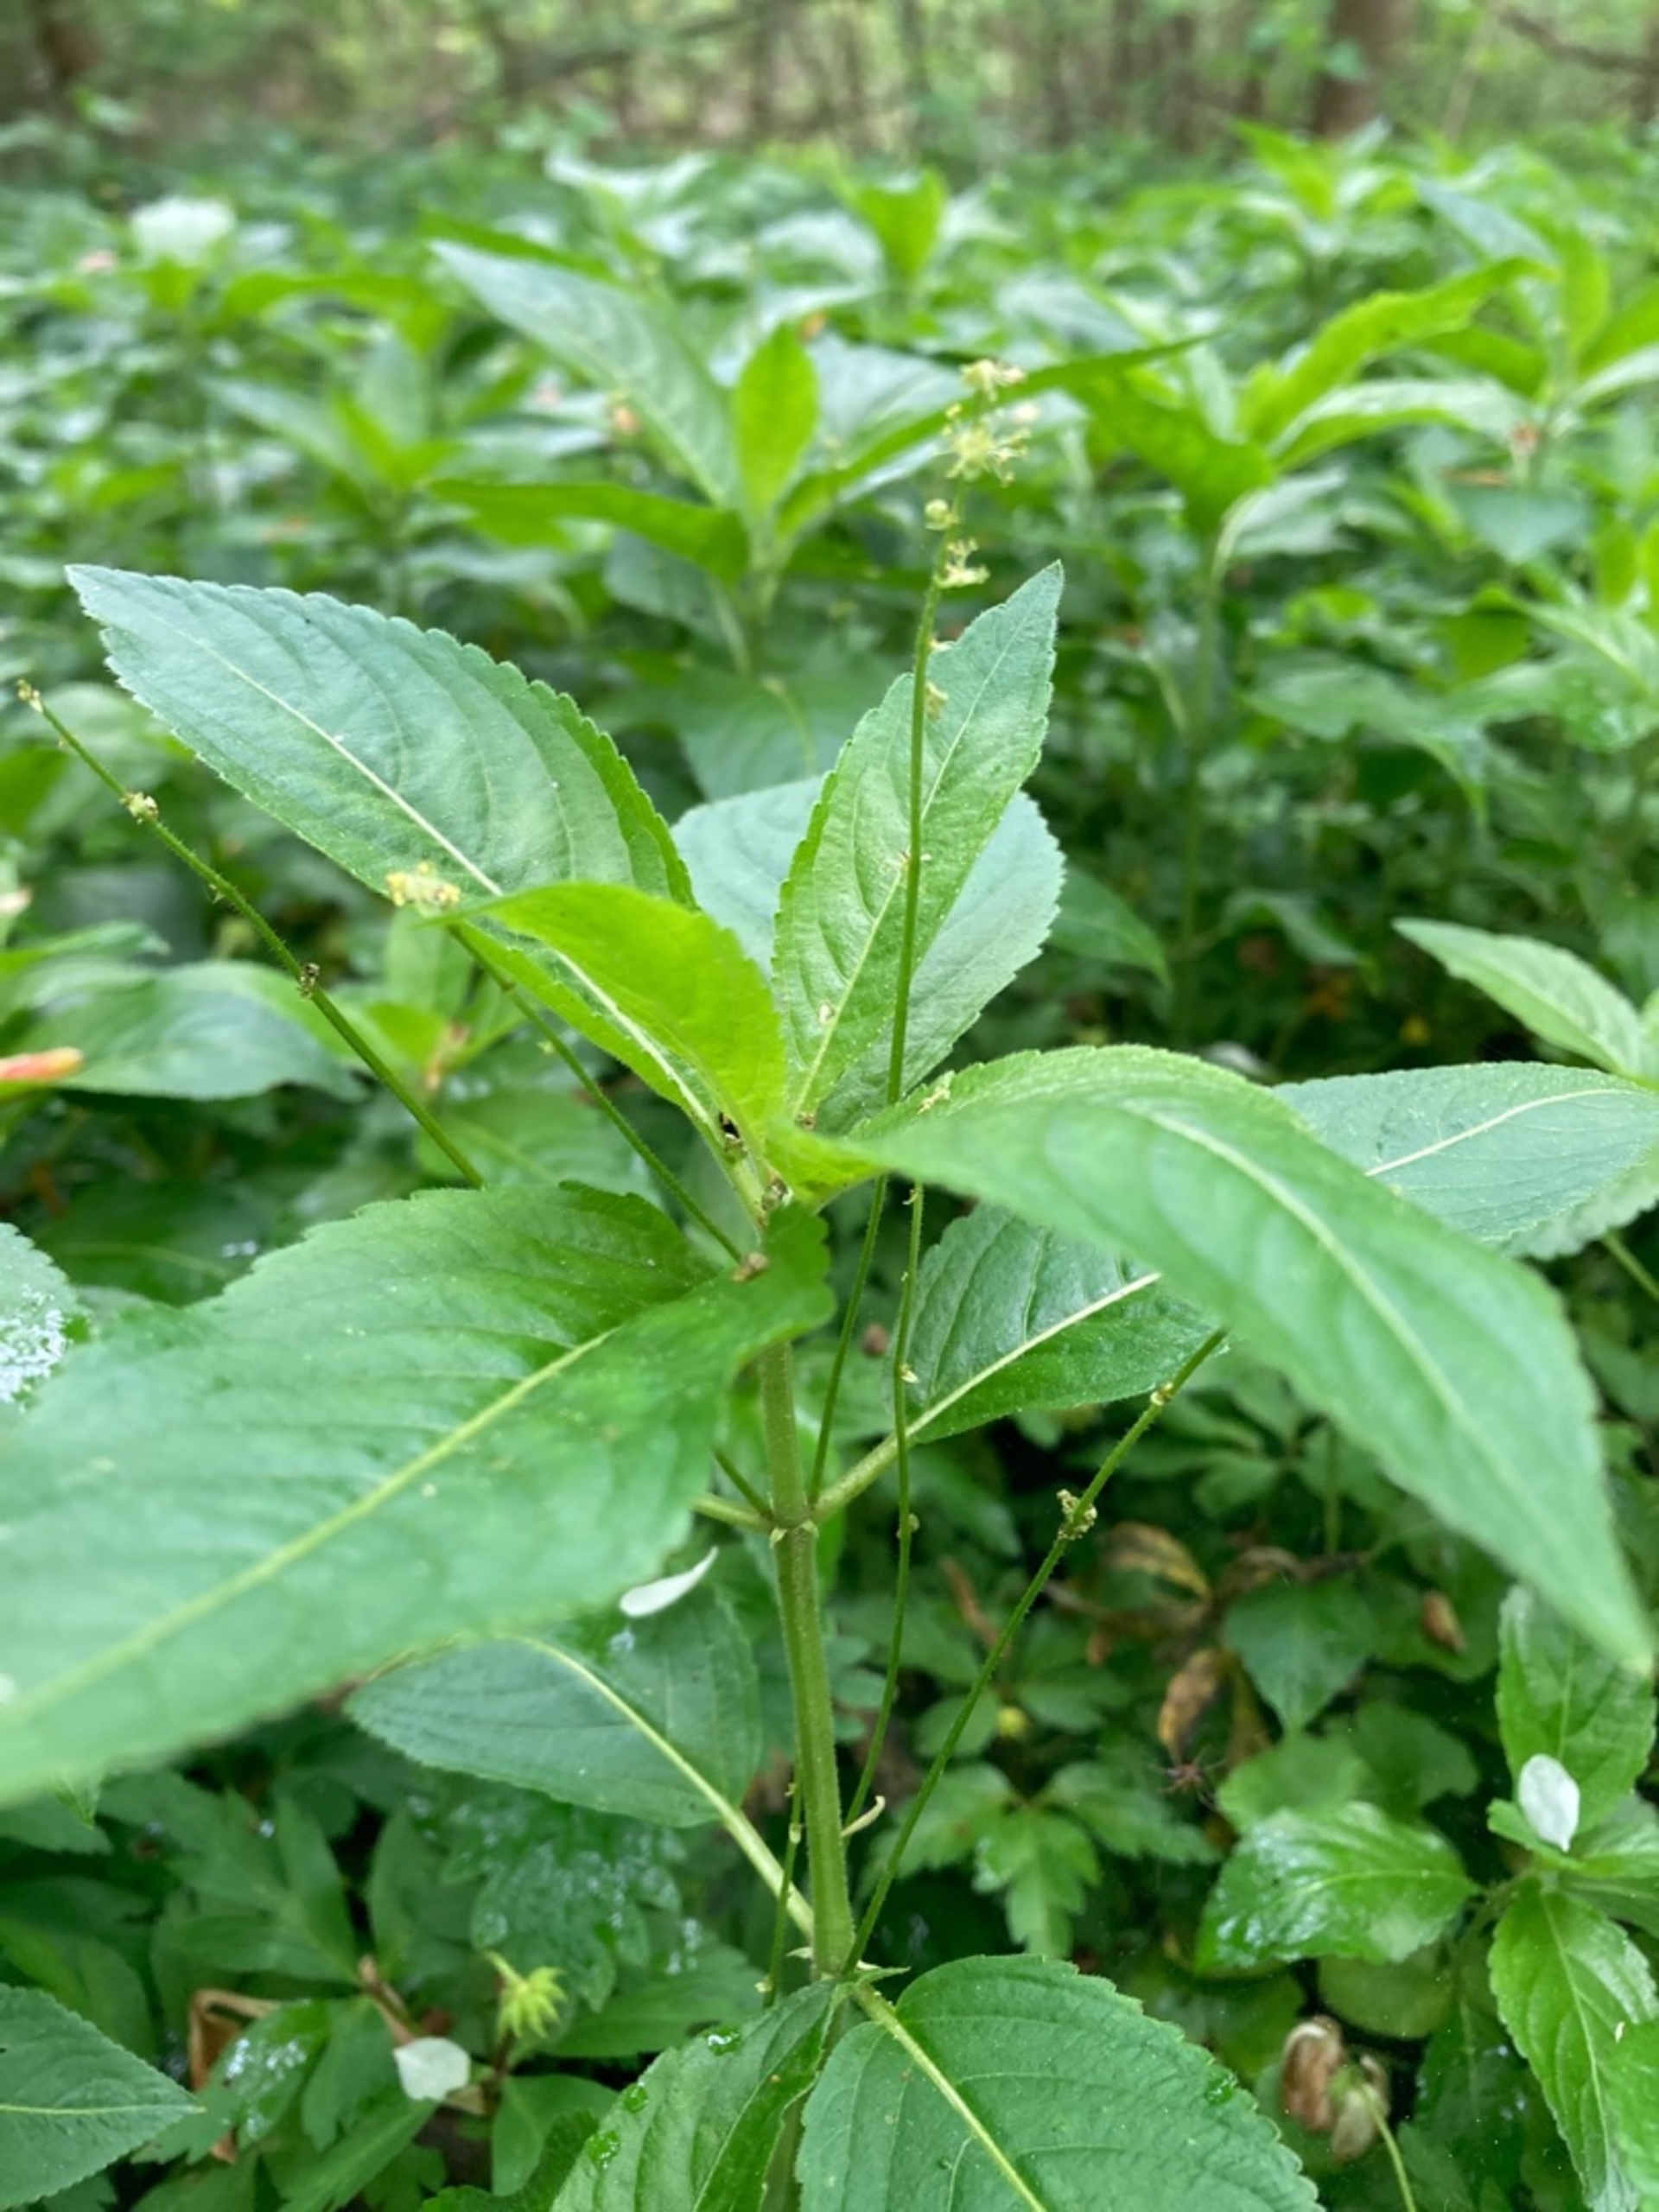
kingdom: Plantae
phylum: Tracheophyta
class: Magnoliopsida
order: Malpighiales
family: Euphorbiaceae
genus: Mercurialis
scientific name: Mercurialis perennis
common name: Almindelig bingelurt
